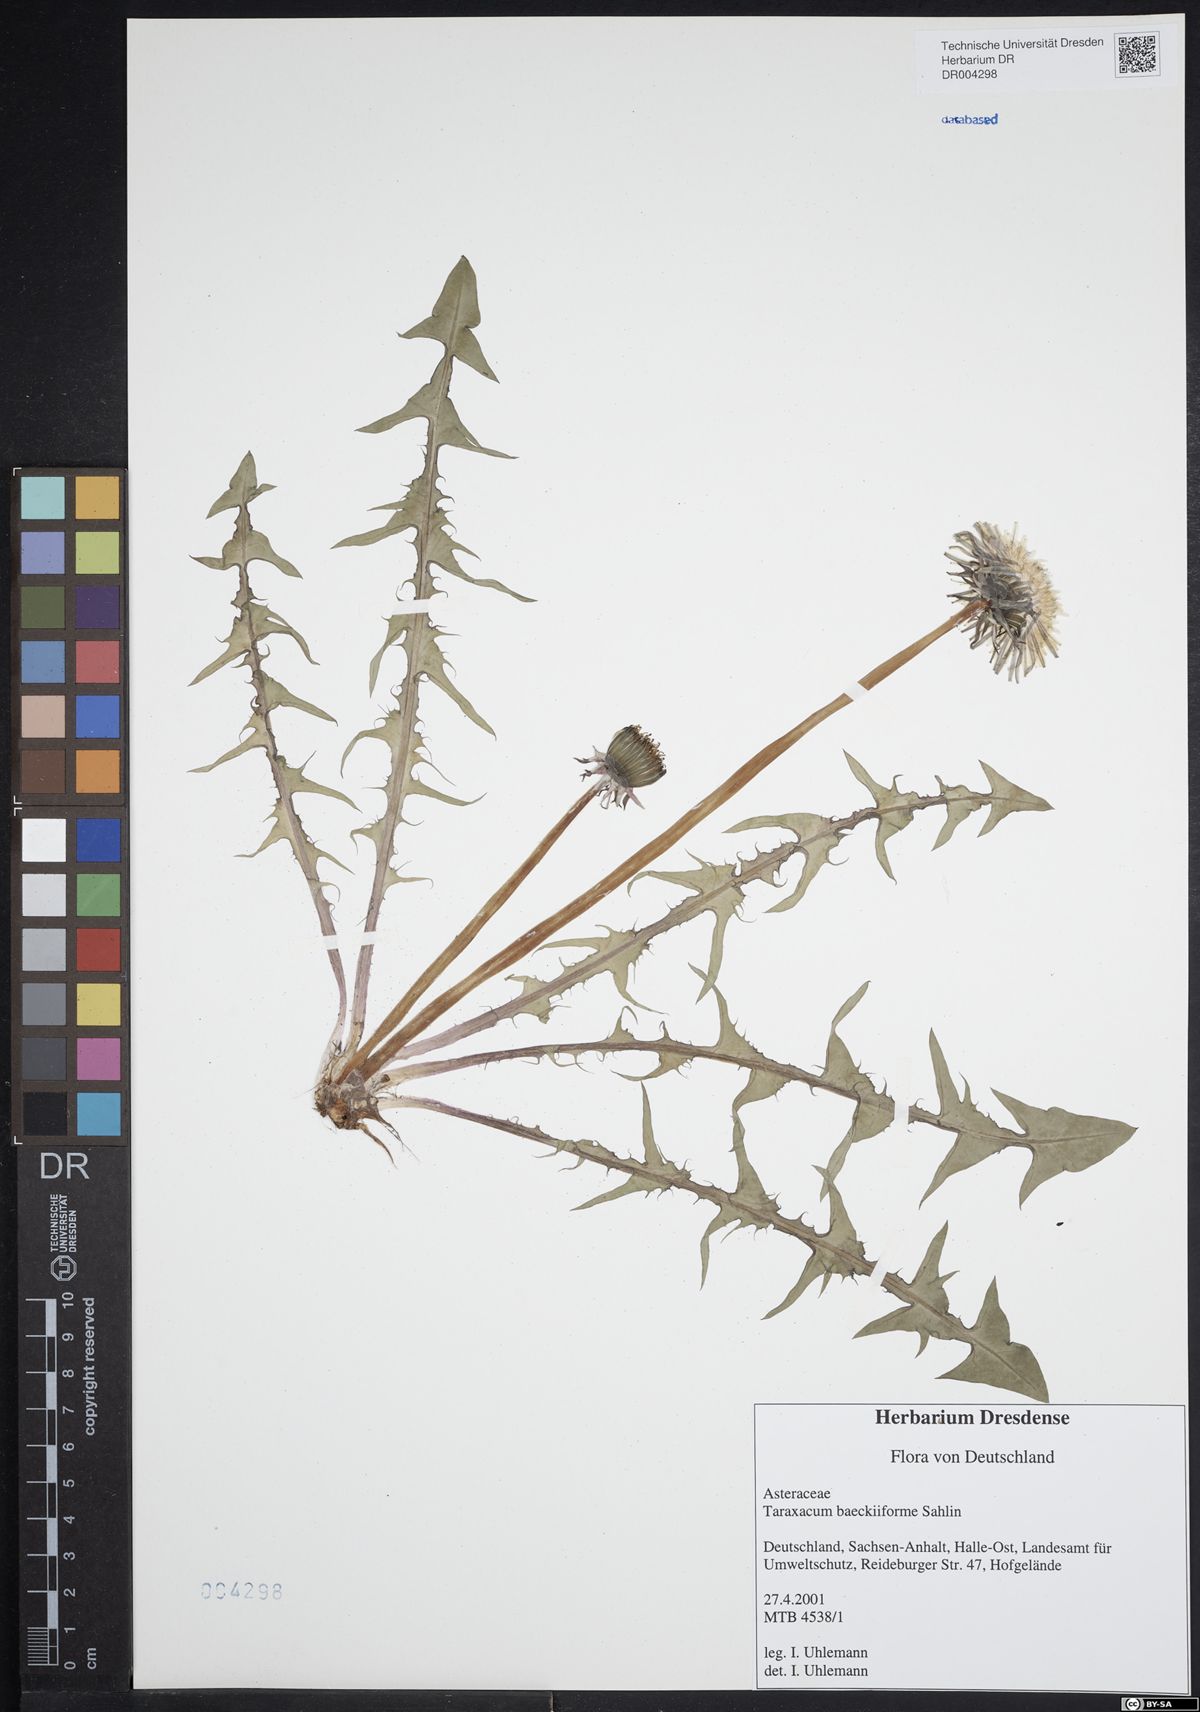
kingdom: Plantae
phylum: Tracheophyta
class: Magnoliopsida
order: Asterales
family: Asteraceae
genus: Taraxacum
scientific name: Taraxacum baeckiiforme
